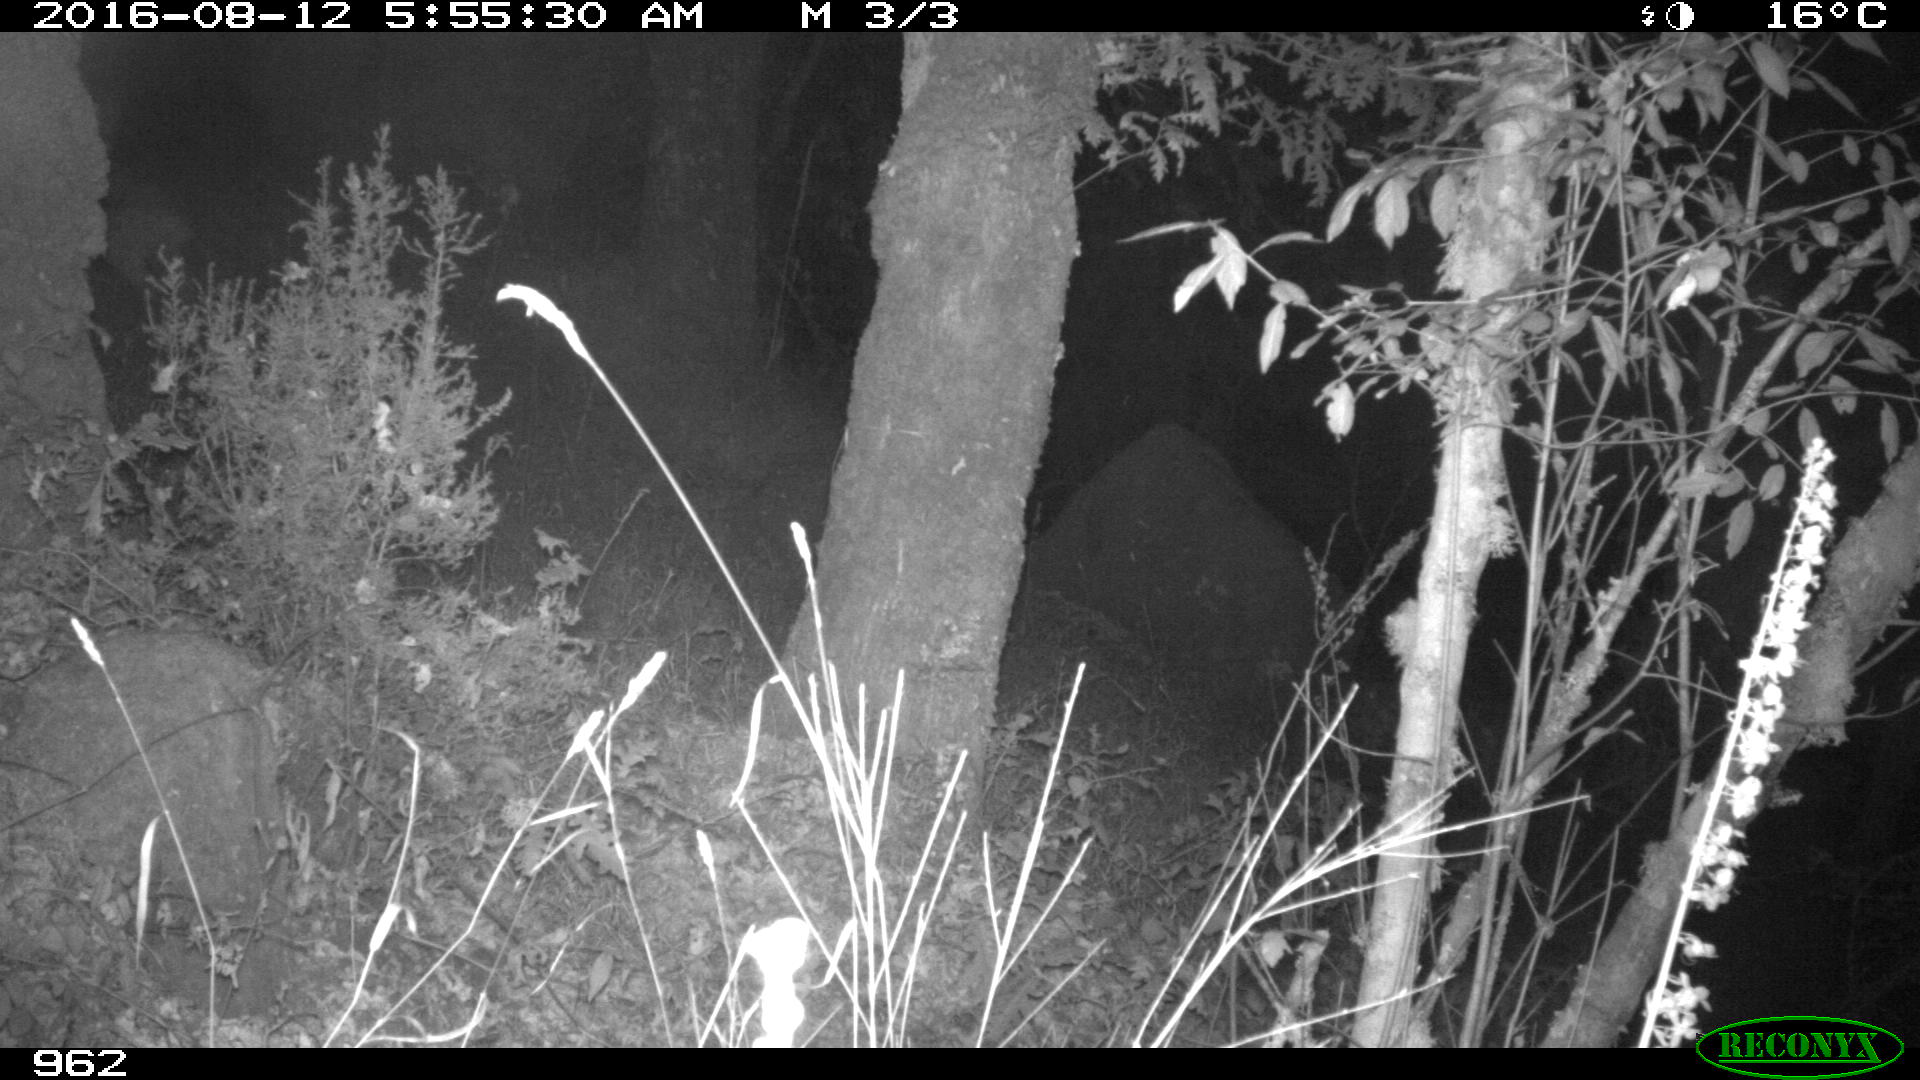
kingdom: Animalia
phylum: Chordata
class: Mammalia
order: Artiodactyla
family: Suidae
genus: Sus
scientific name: Sus scrofa
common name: Wild boar
